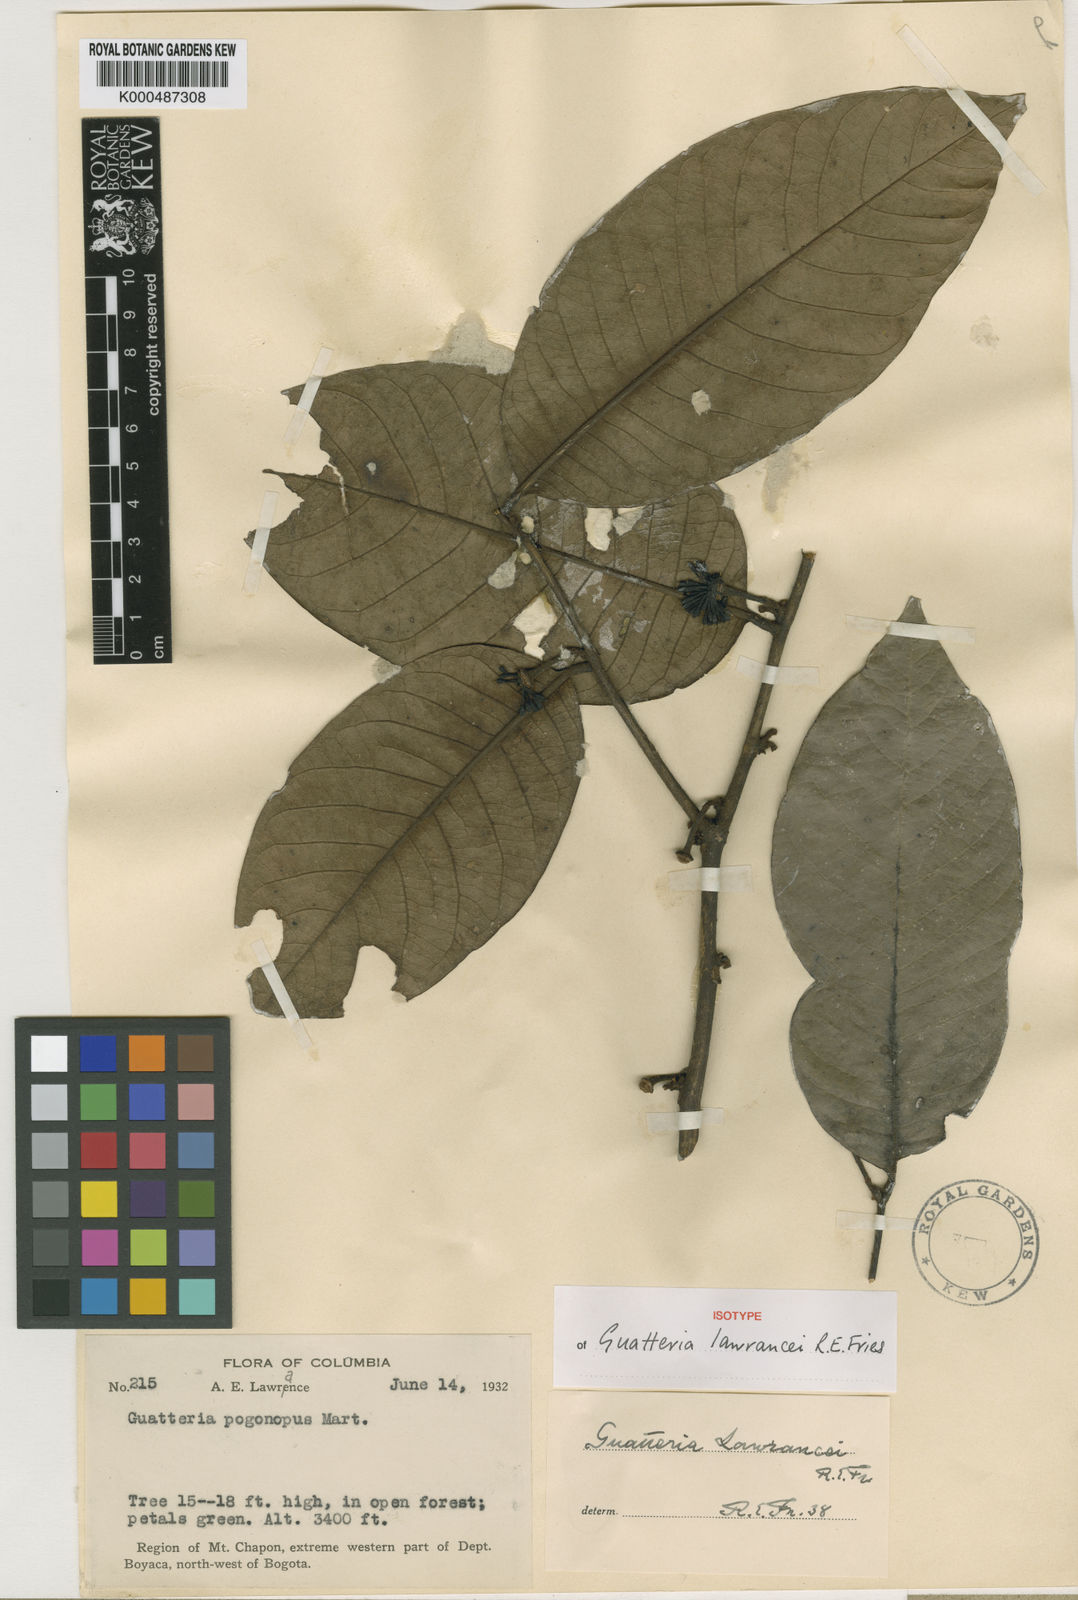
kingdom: Plantae
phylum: Tracheophyta
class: Magnoliopsida
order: Magnoliales
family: Annonaceae
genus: Guatteria
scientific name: Guatteria lawrancei
